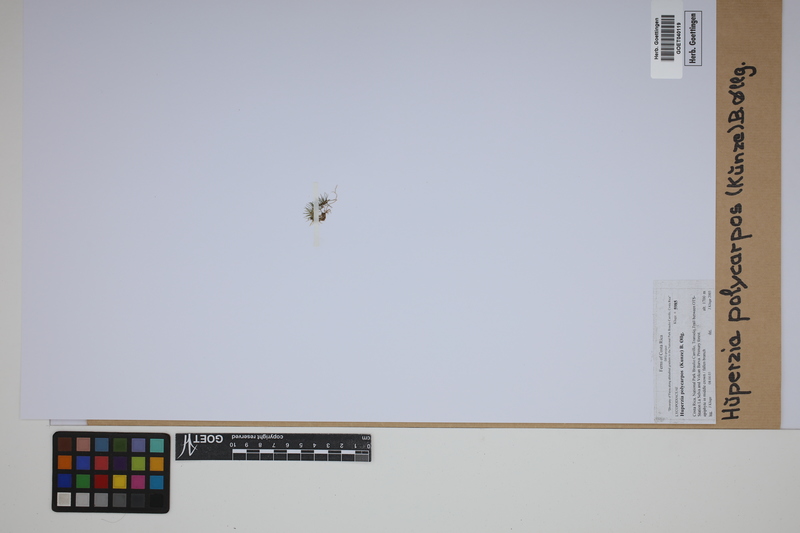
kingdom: Plantae
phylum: Tracheophyta
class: Lycopodiopsida
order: Lycopodiales
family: Lycopodiaceae
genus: Phlegmariurus
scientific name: Phlegmariurus
